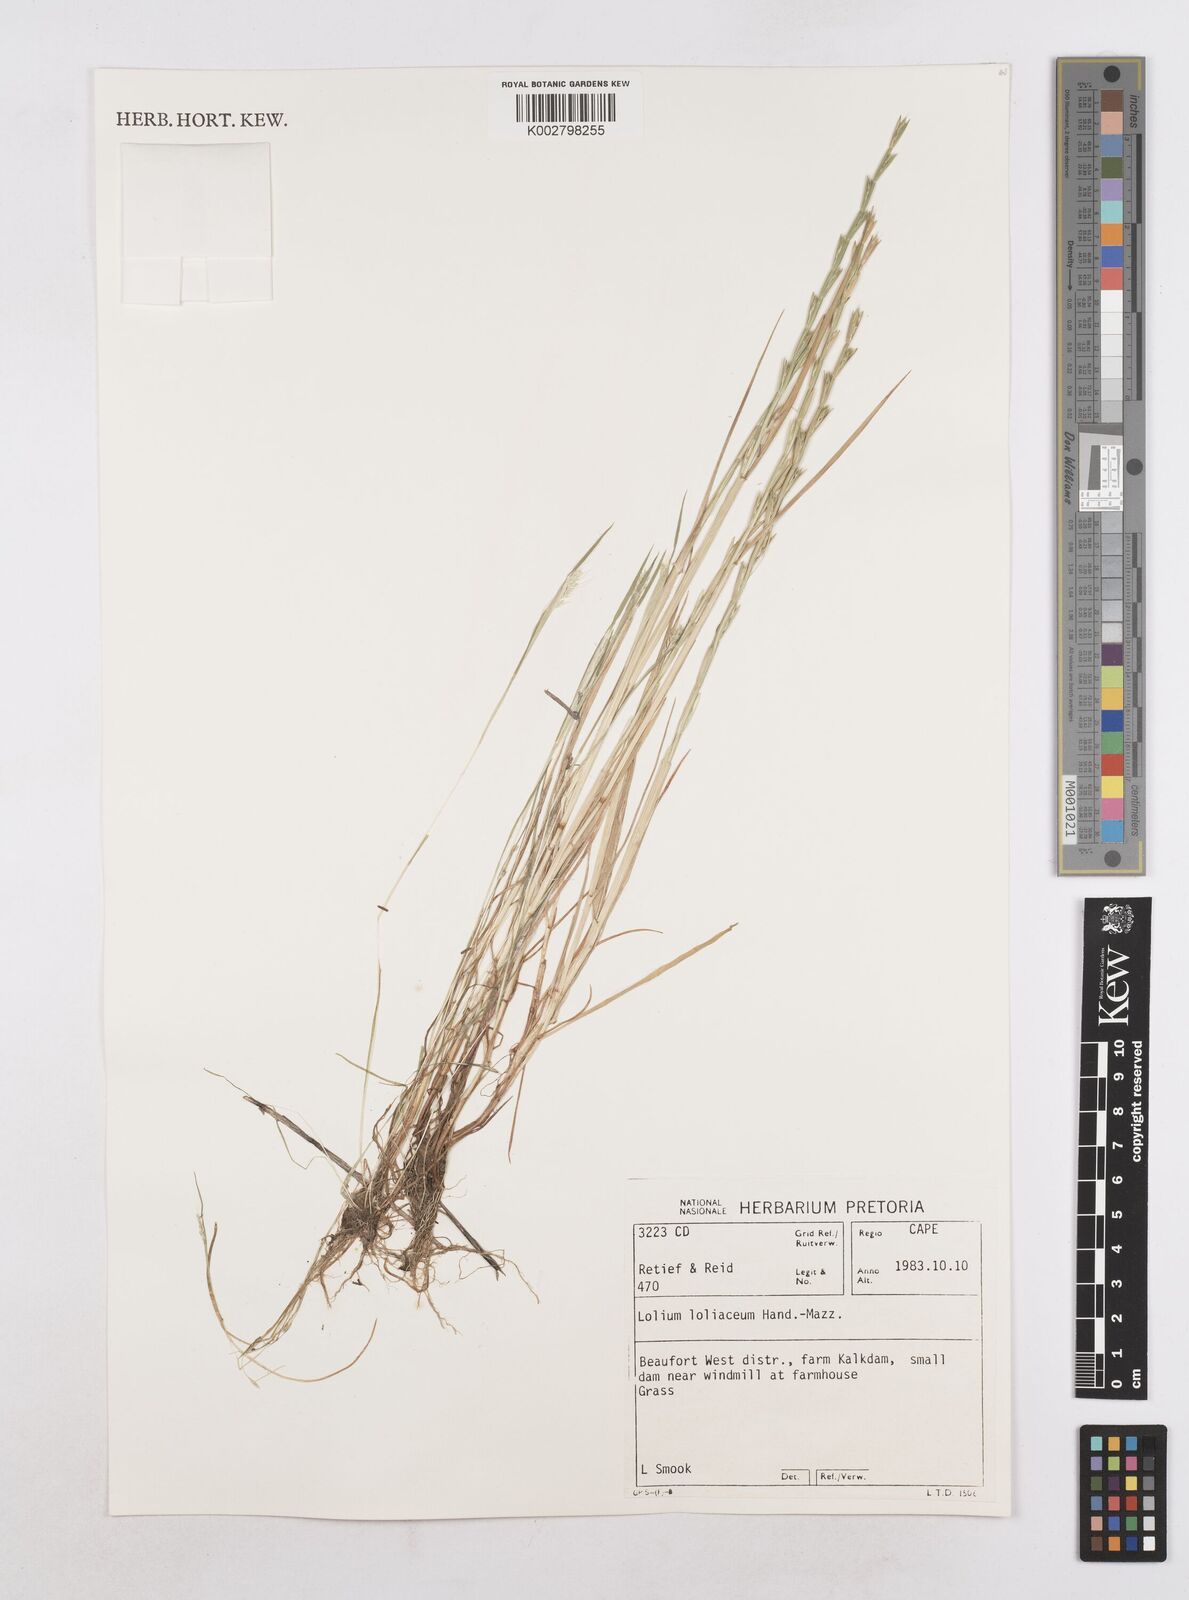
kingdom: Plantae
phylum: Tracheophyta
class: Liliopsida
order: Poales
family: Poaceae
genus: Lolium
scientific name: Lolium rigidum
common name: Wimmera ryegrass
